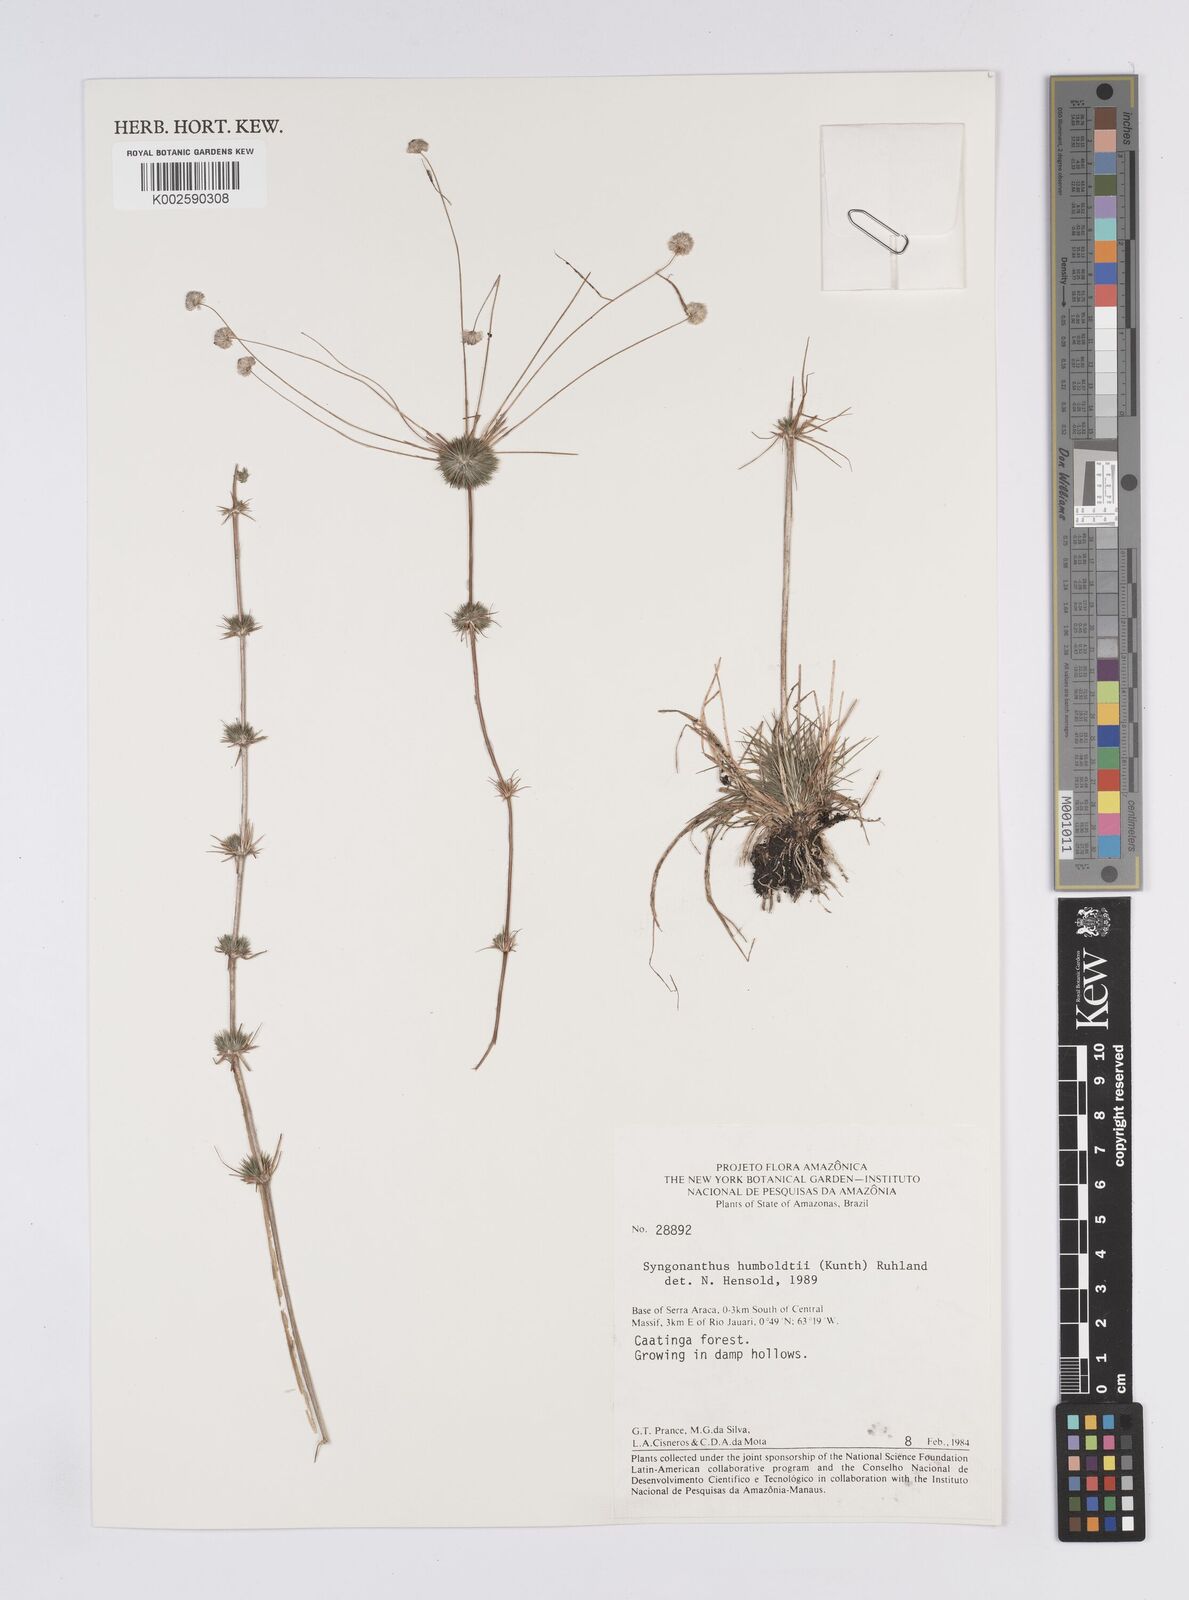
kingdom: Plantae
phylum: Tracheophyta
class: Liliopsida
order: Poales
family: Eriocaulaceae
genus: Syngonanthus
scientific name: Syngonanthus humboldtii
